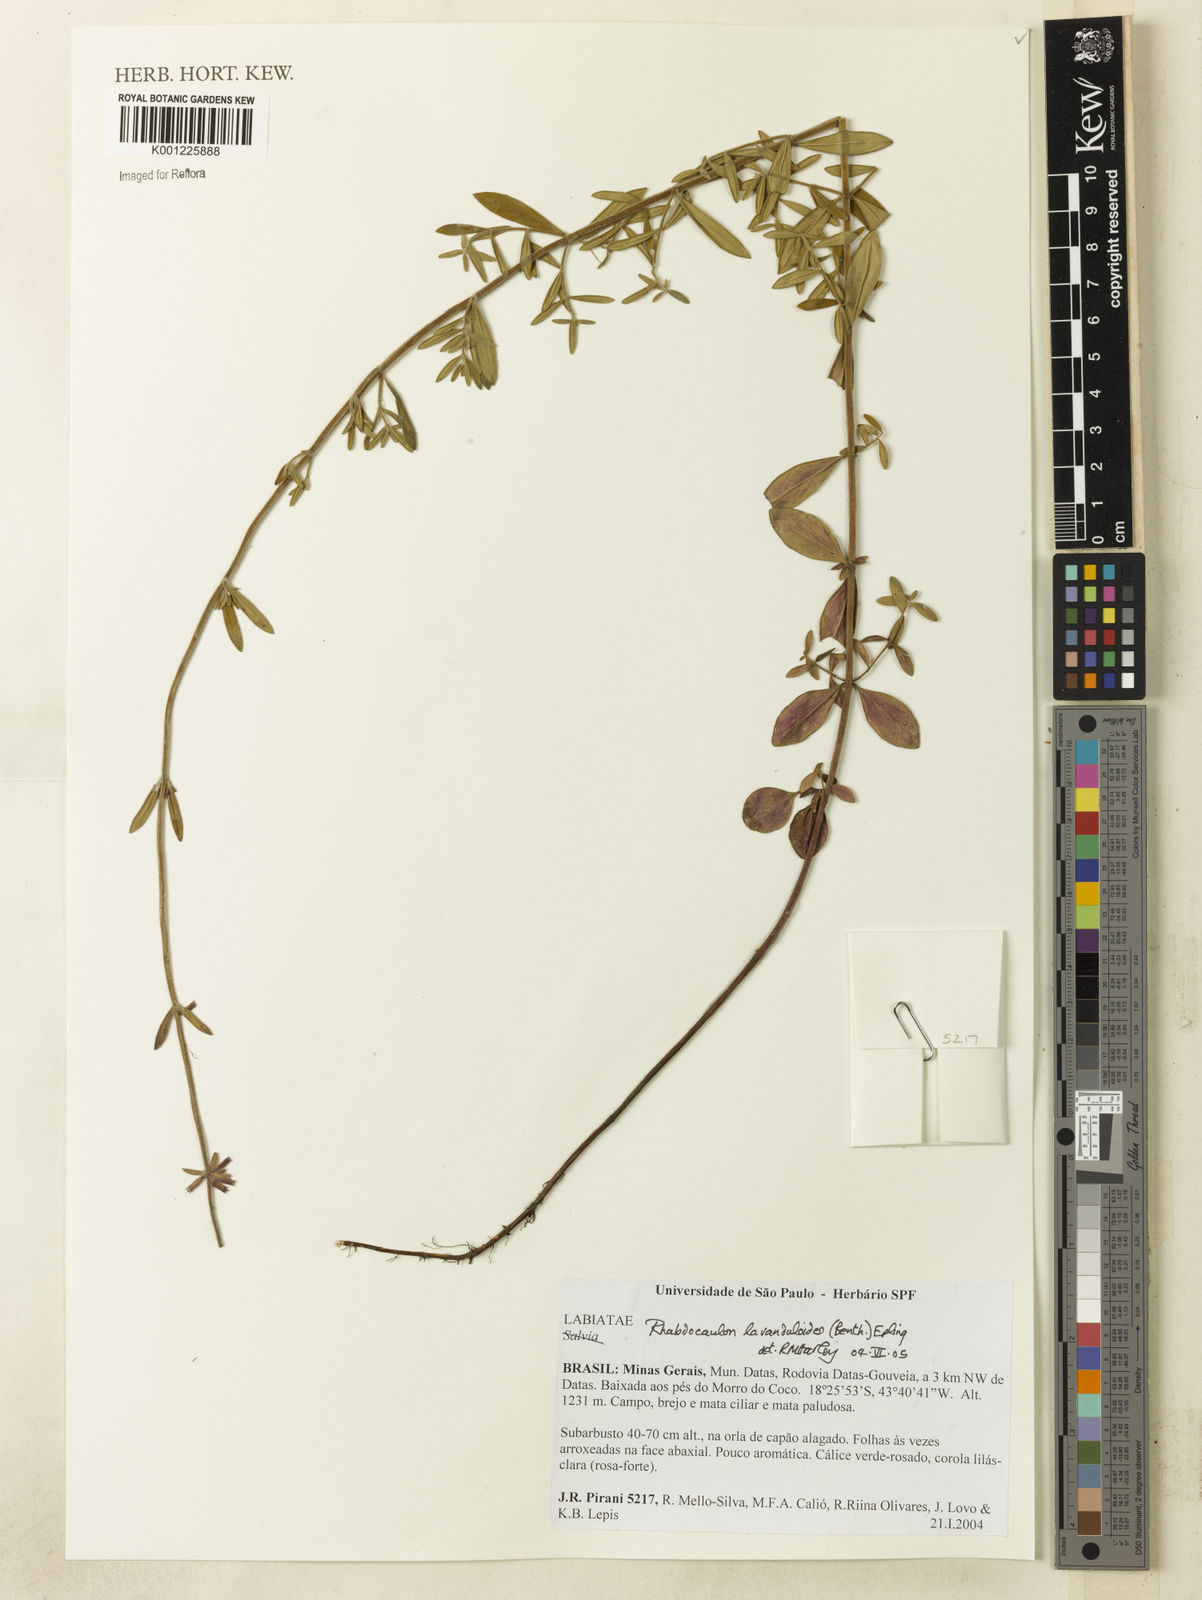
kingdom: Plantae
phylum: Tracheophyta
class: Magnoliopsida
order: Lamiales
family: Lamiaceae
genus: Rhabdocaulon
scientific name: Rhabdocaulon lavanduloides
